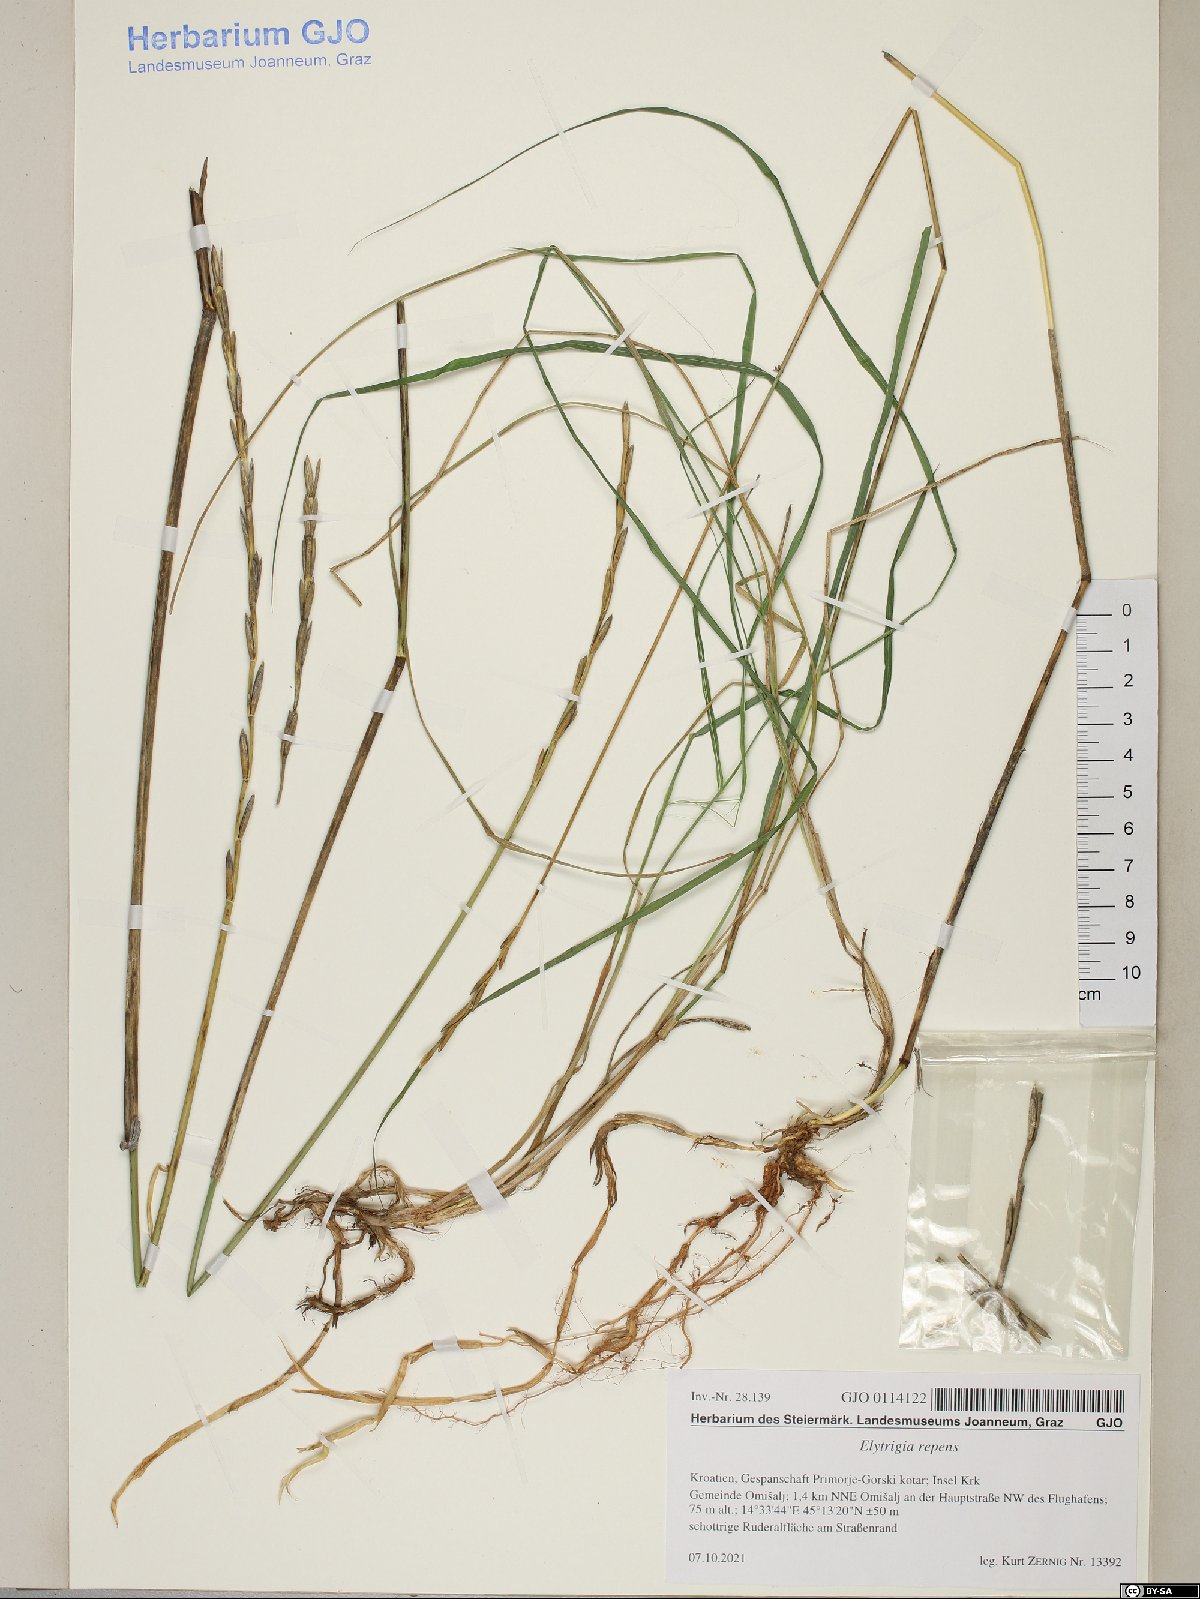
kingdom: Plantae
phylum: Tracheophyta
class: Liliopsida
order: Poales
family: Poaceae
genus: Elymus
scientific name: Elymus repens
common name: Quackgrass
